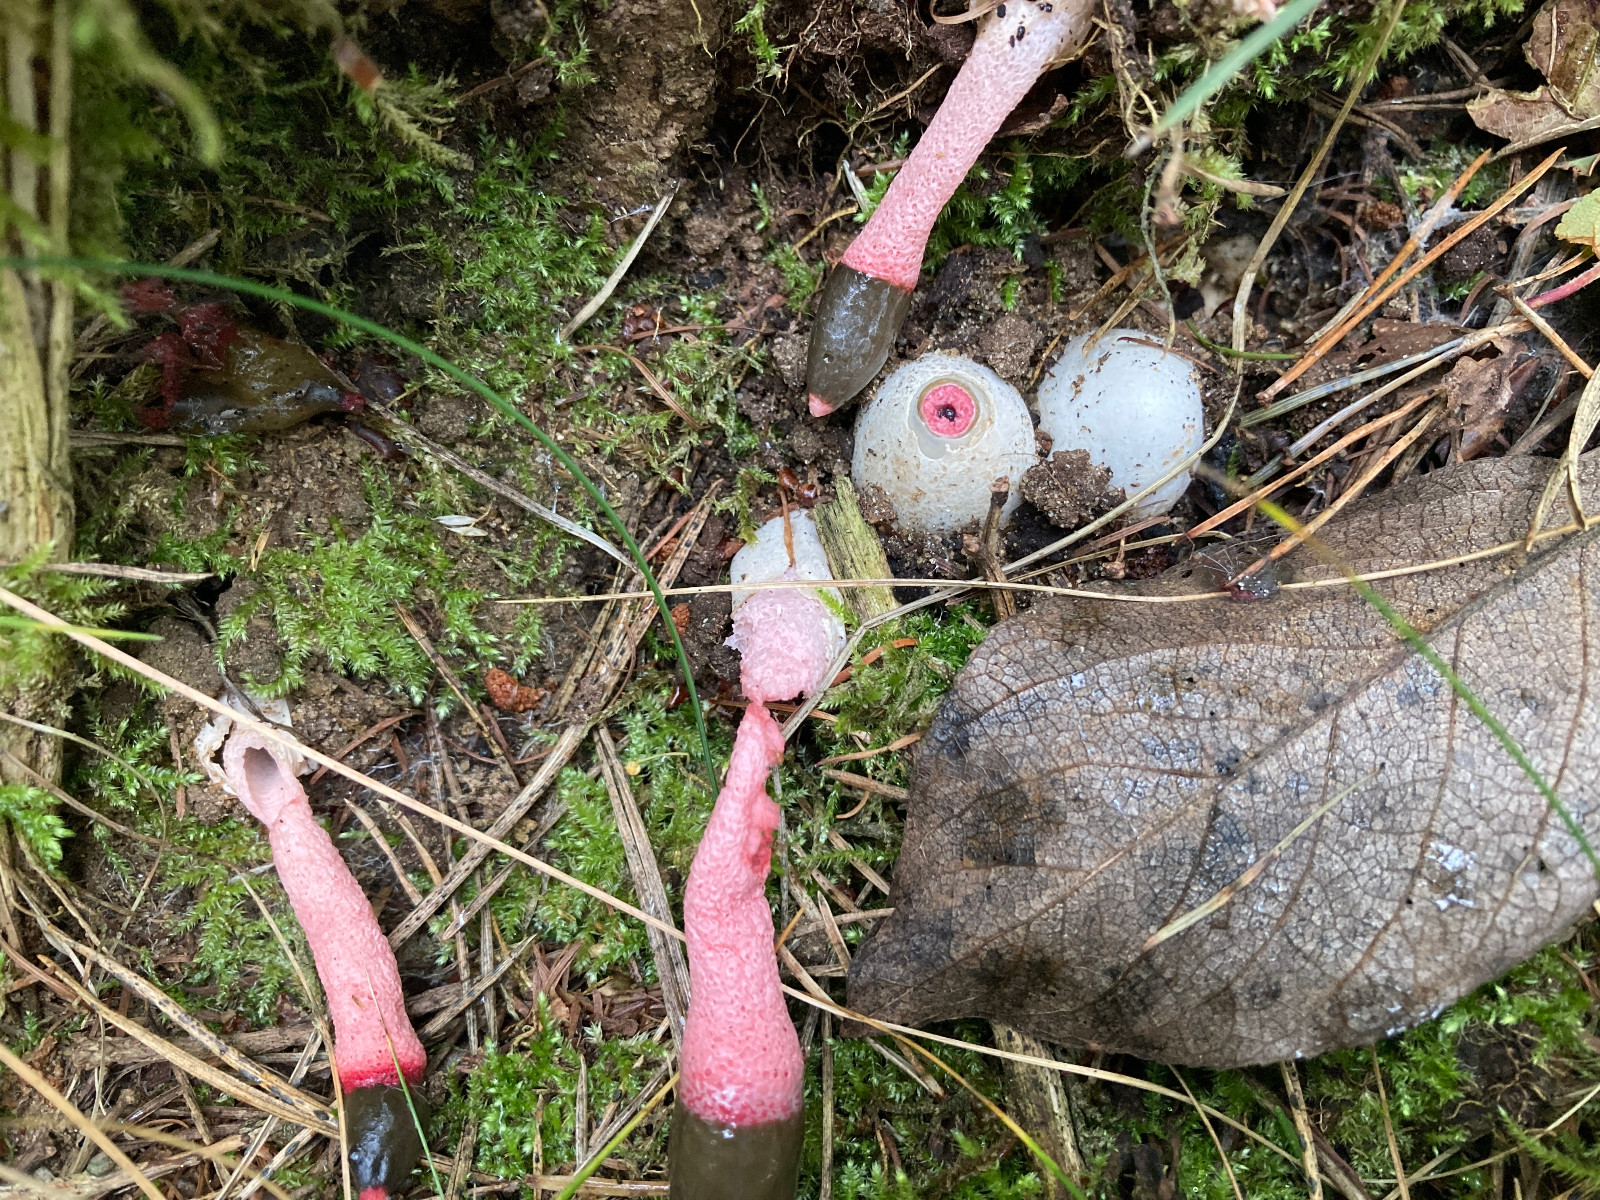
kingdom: Fungi
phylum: Basidiomycota
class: Agaricomycetes
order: Phallales
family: Phallaceae
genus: Mutinus
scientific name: Mutinus ravenelii
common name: rød stinksvamp
